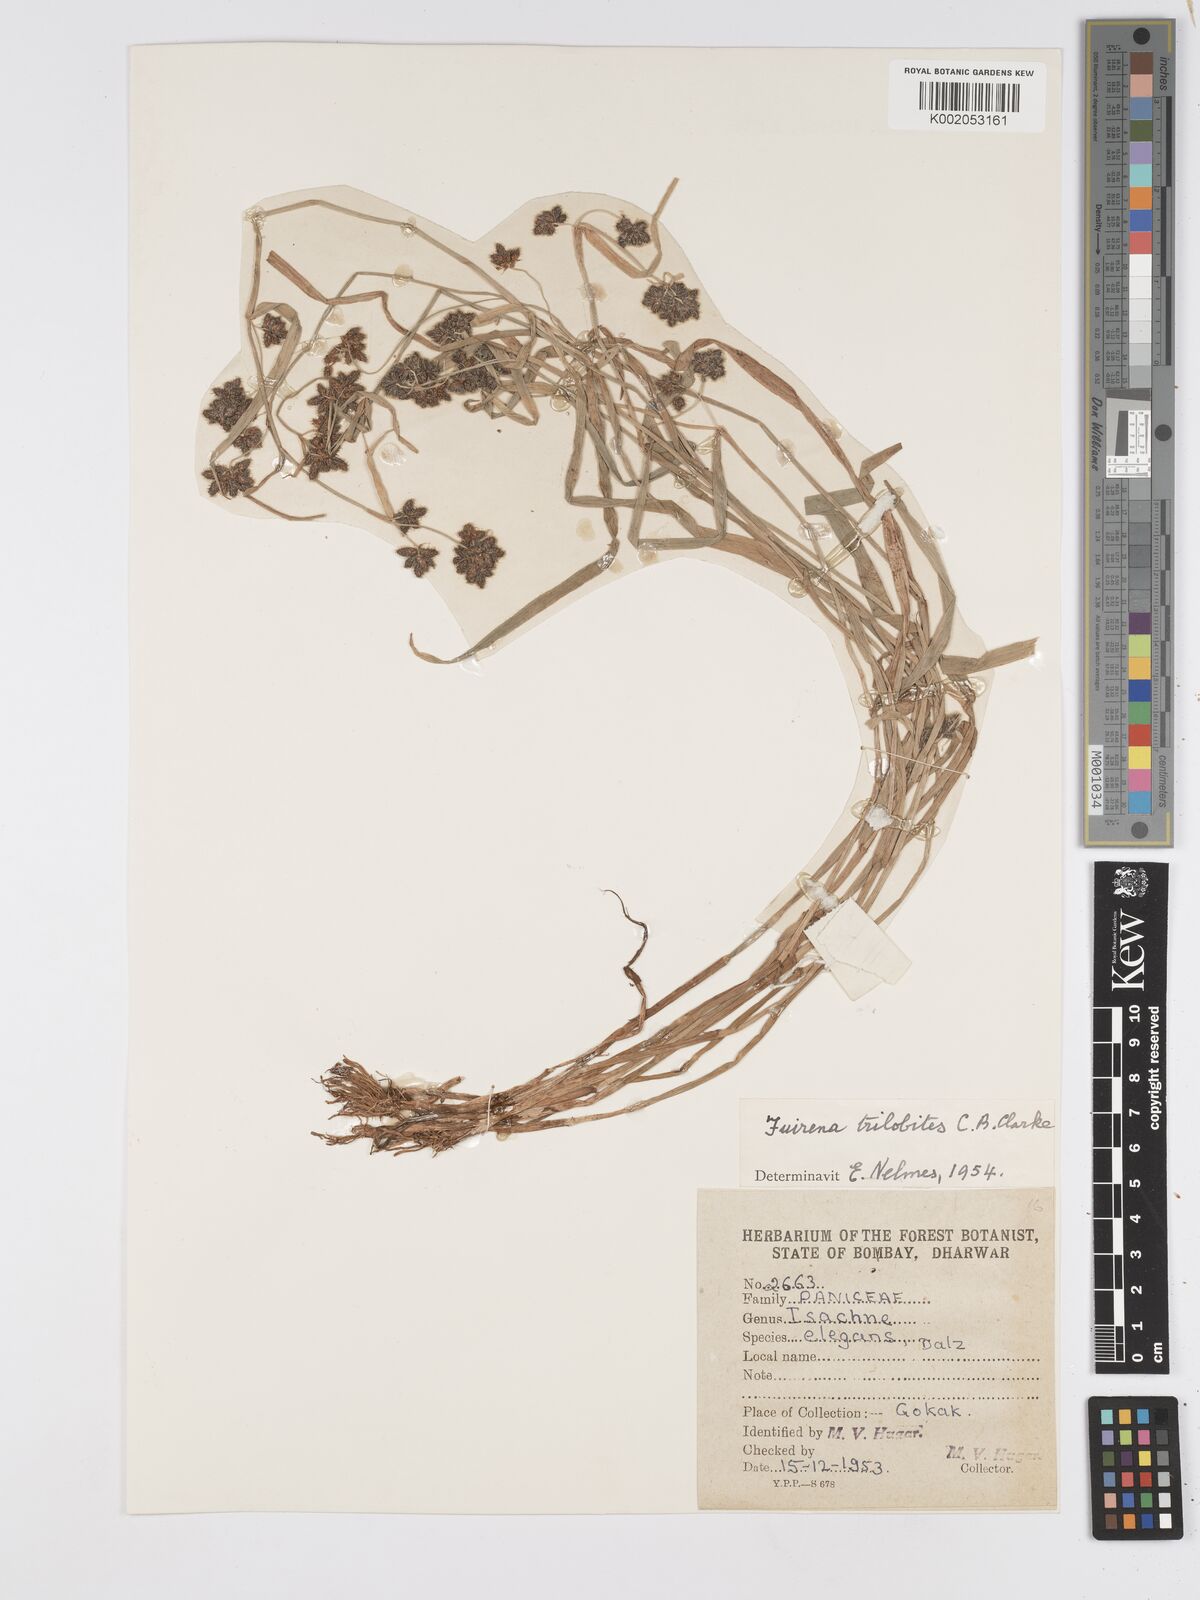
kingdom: Plantae
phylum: Tracheophyta
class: Liliopsida
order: Poales
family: Cyperaceae
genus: Fuirena
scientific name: Fuirena trilobites
